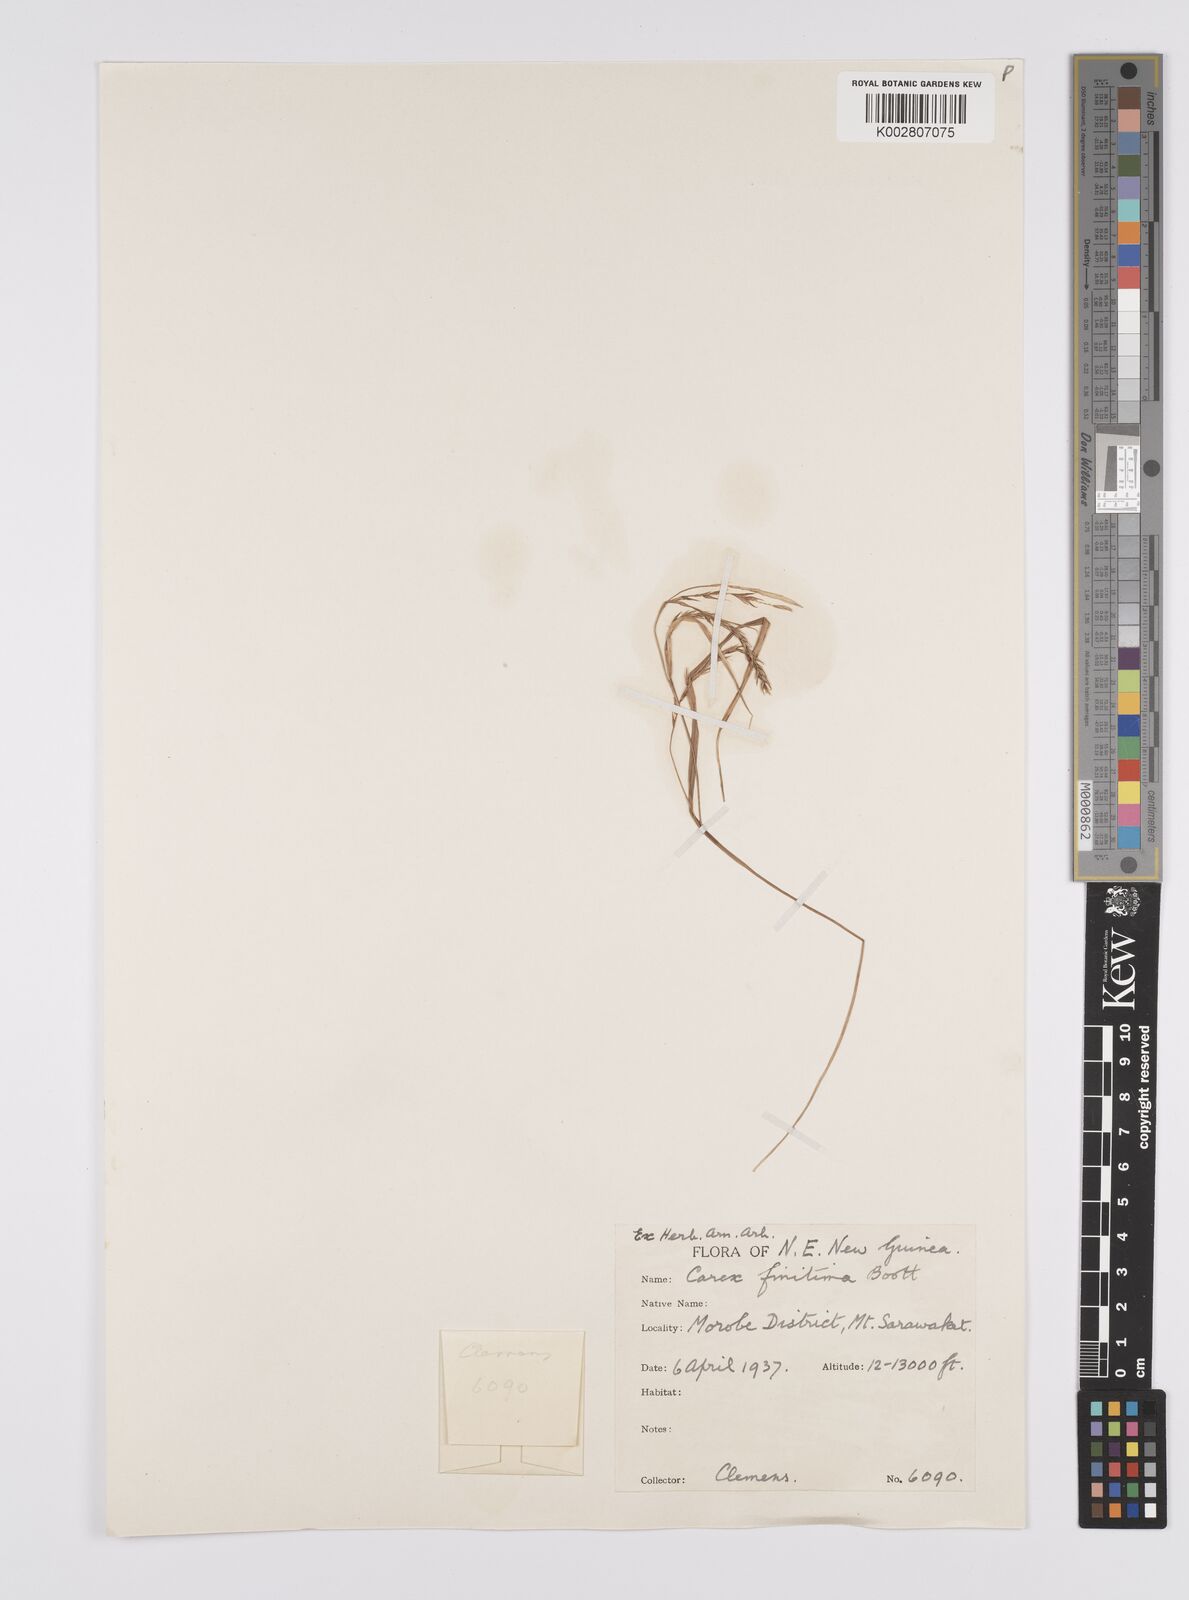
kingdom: Plantae
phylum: Tracheophyta
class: Liliopsida
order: Poales
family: Cyperaceae
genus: Carex
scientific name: Carex finitima
